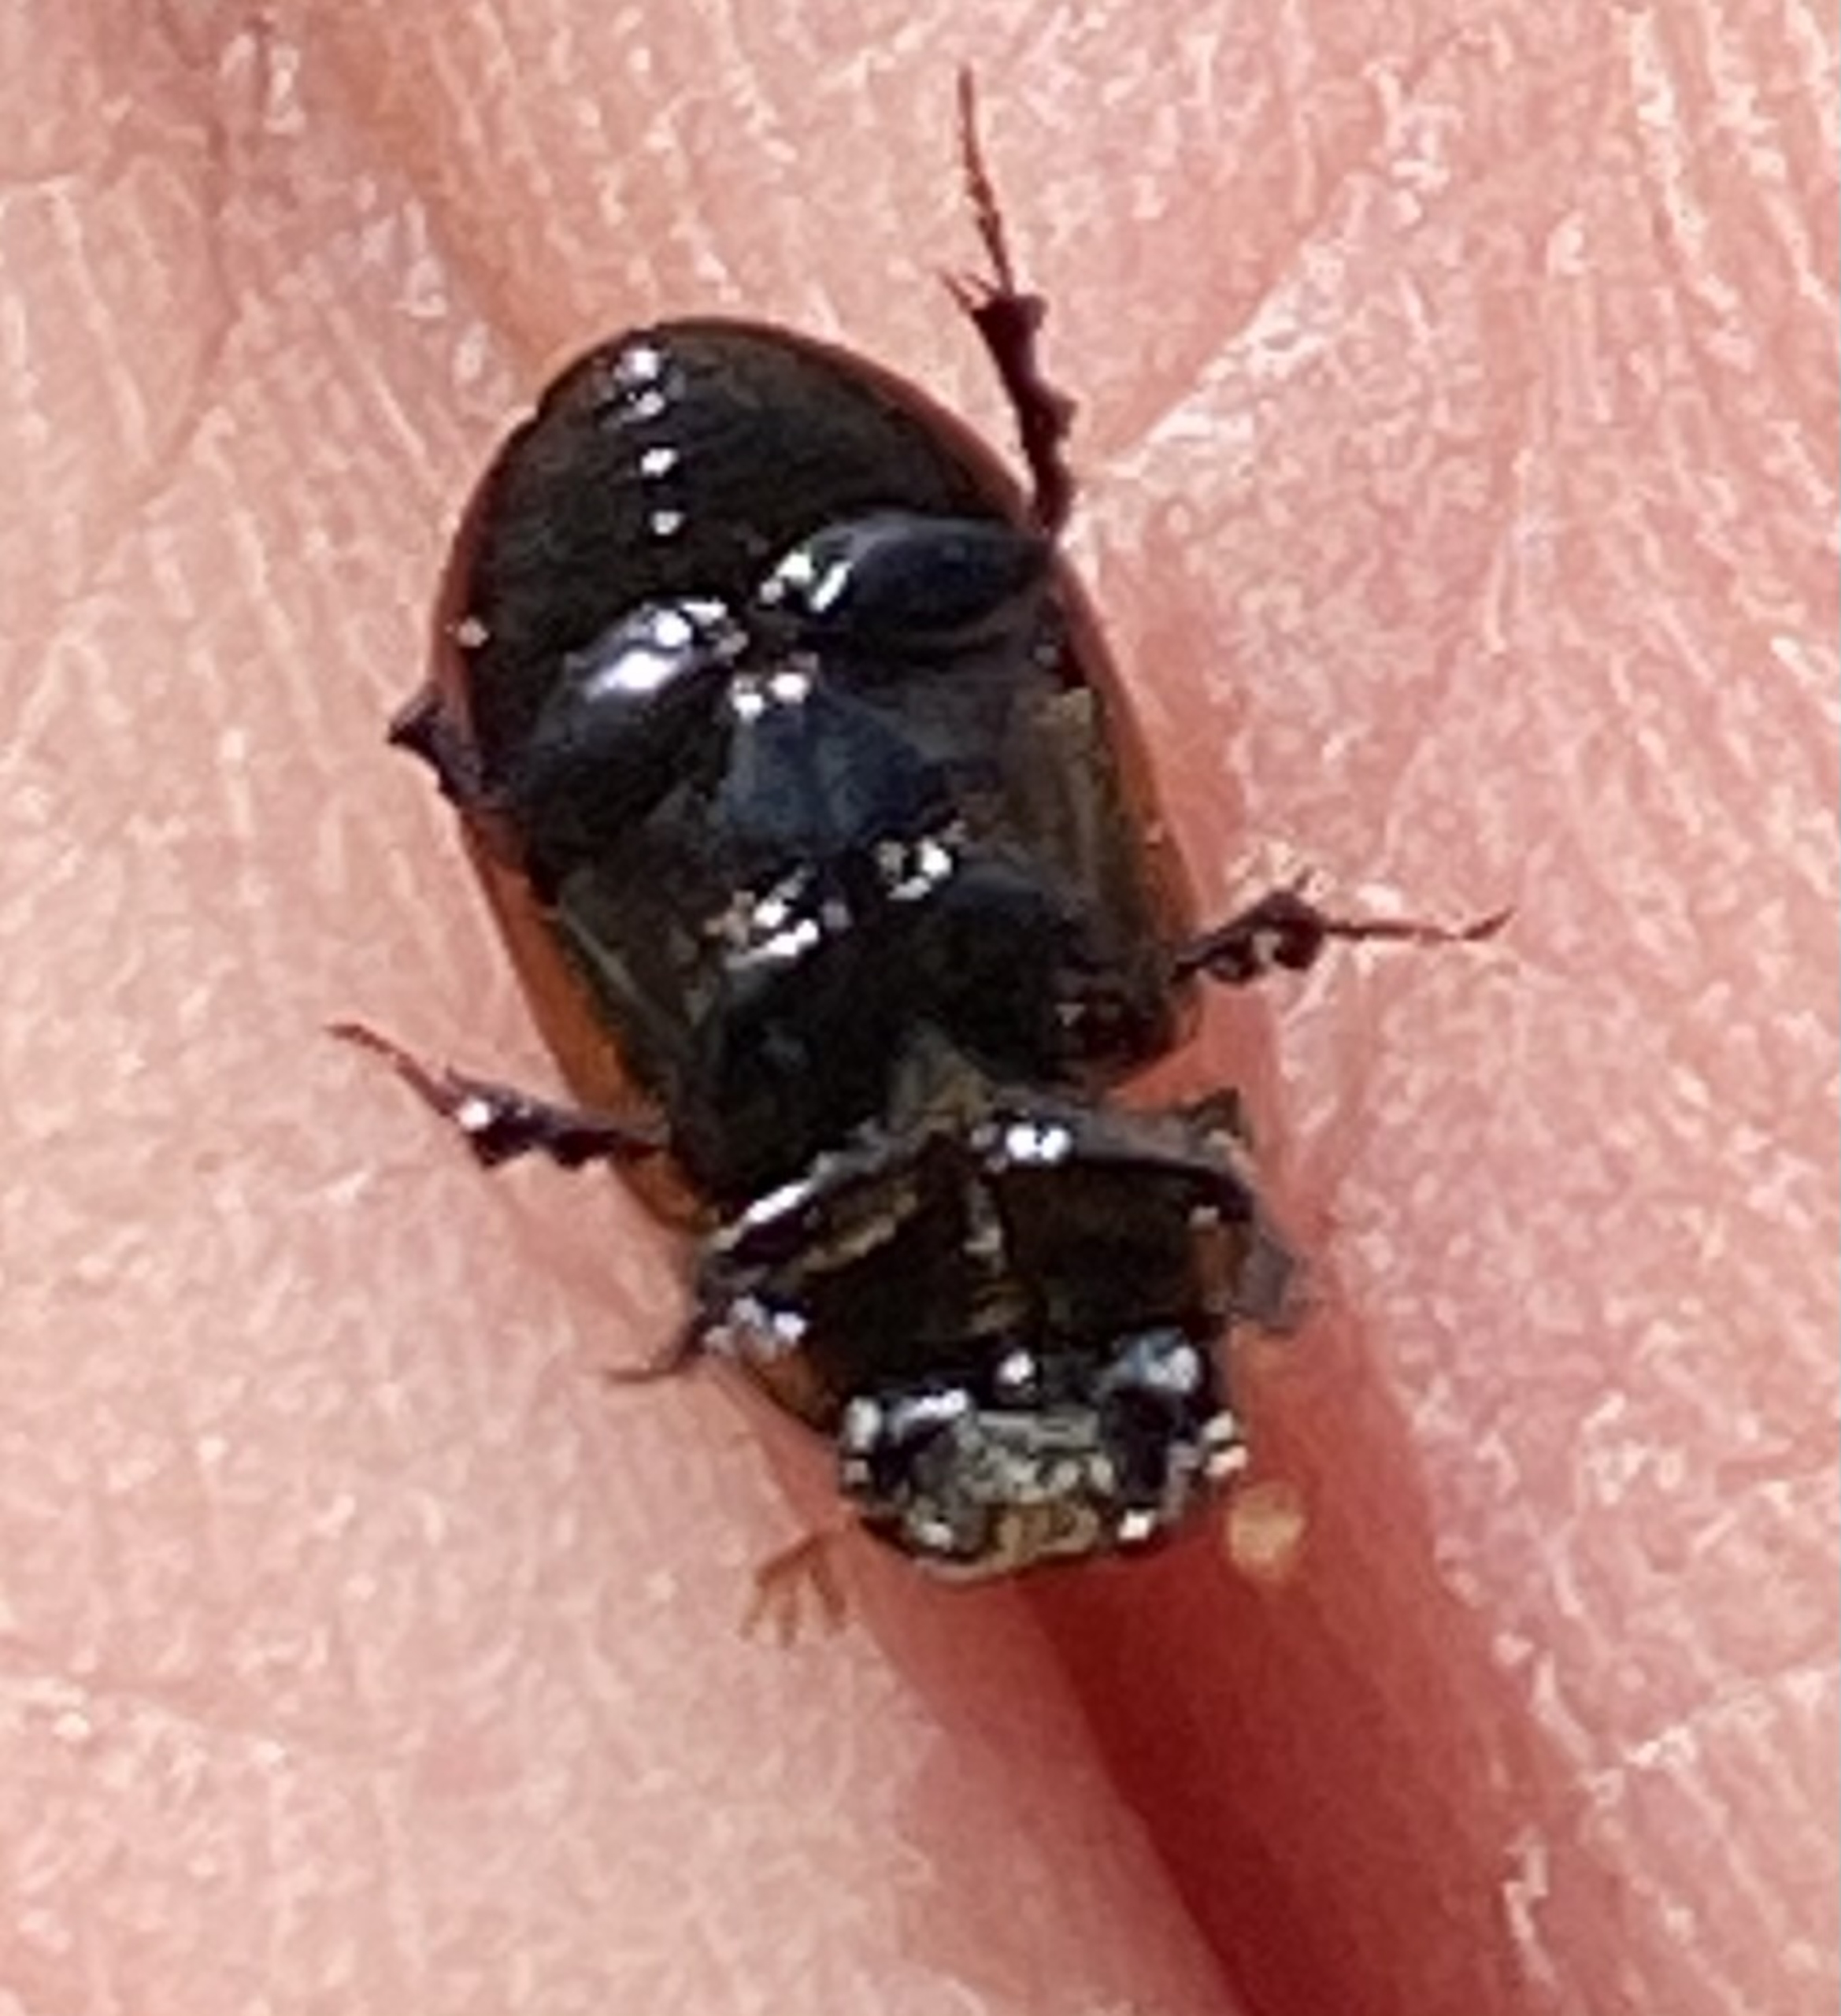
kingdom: Animalia
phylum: Arthropoda
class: Insecta
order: Coleoptera
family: Scarabaeidae
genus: Aphodius
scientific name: Aphodius
